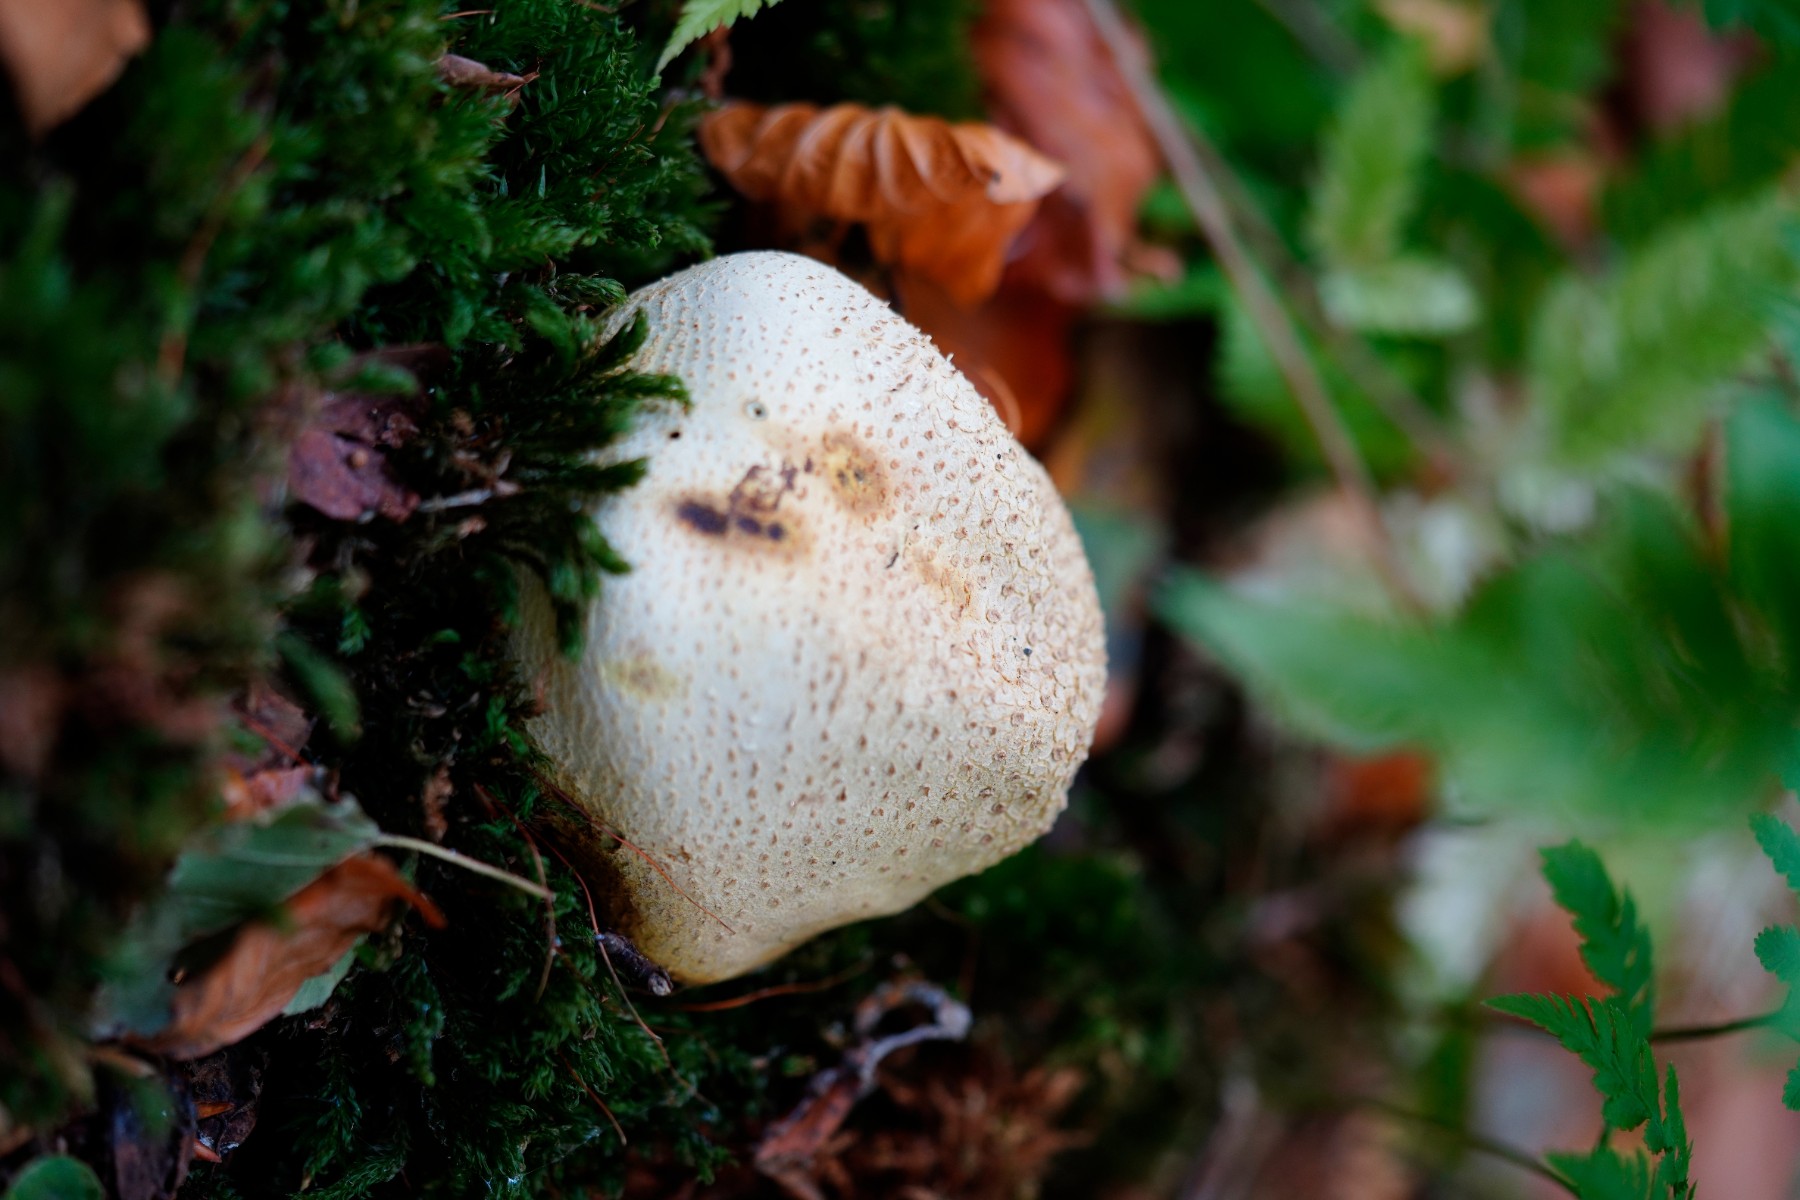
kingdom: Fungi
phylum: Basidiomycota
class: Agaricomycetes
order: Boletales
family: Sclerodermataceae
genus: Scleroderma
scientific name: Scleroderma
